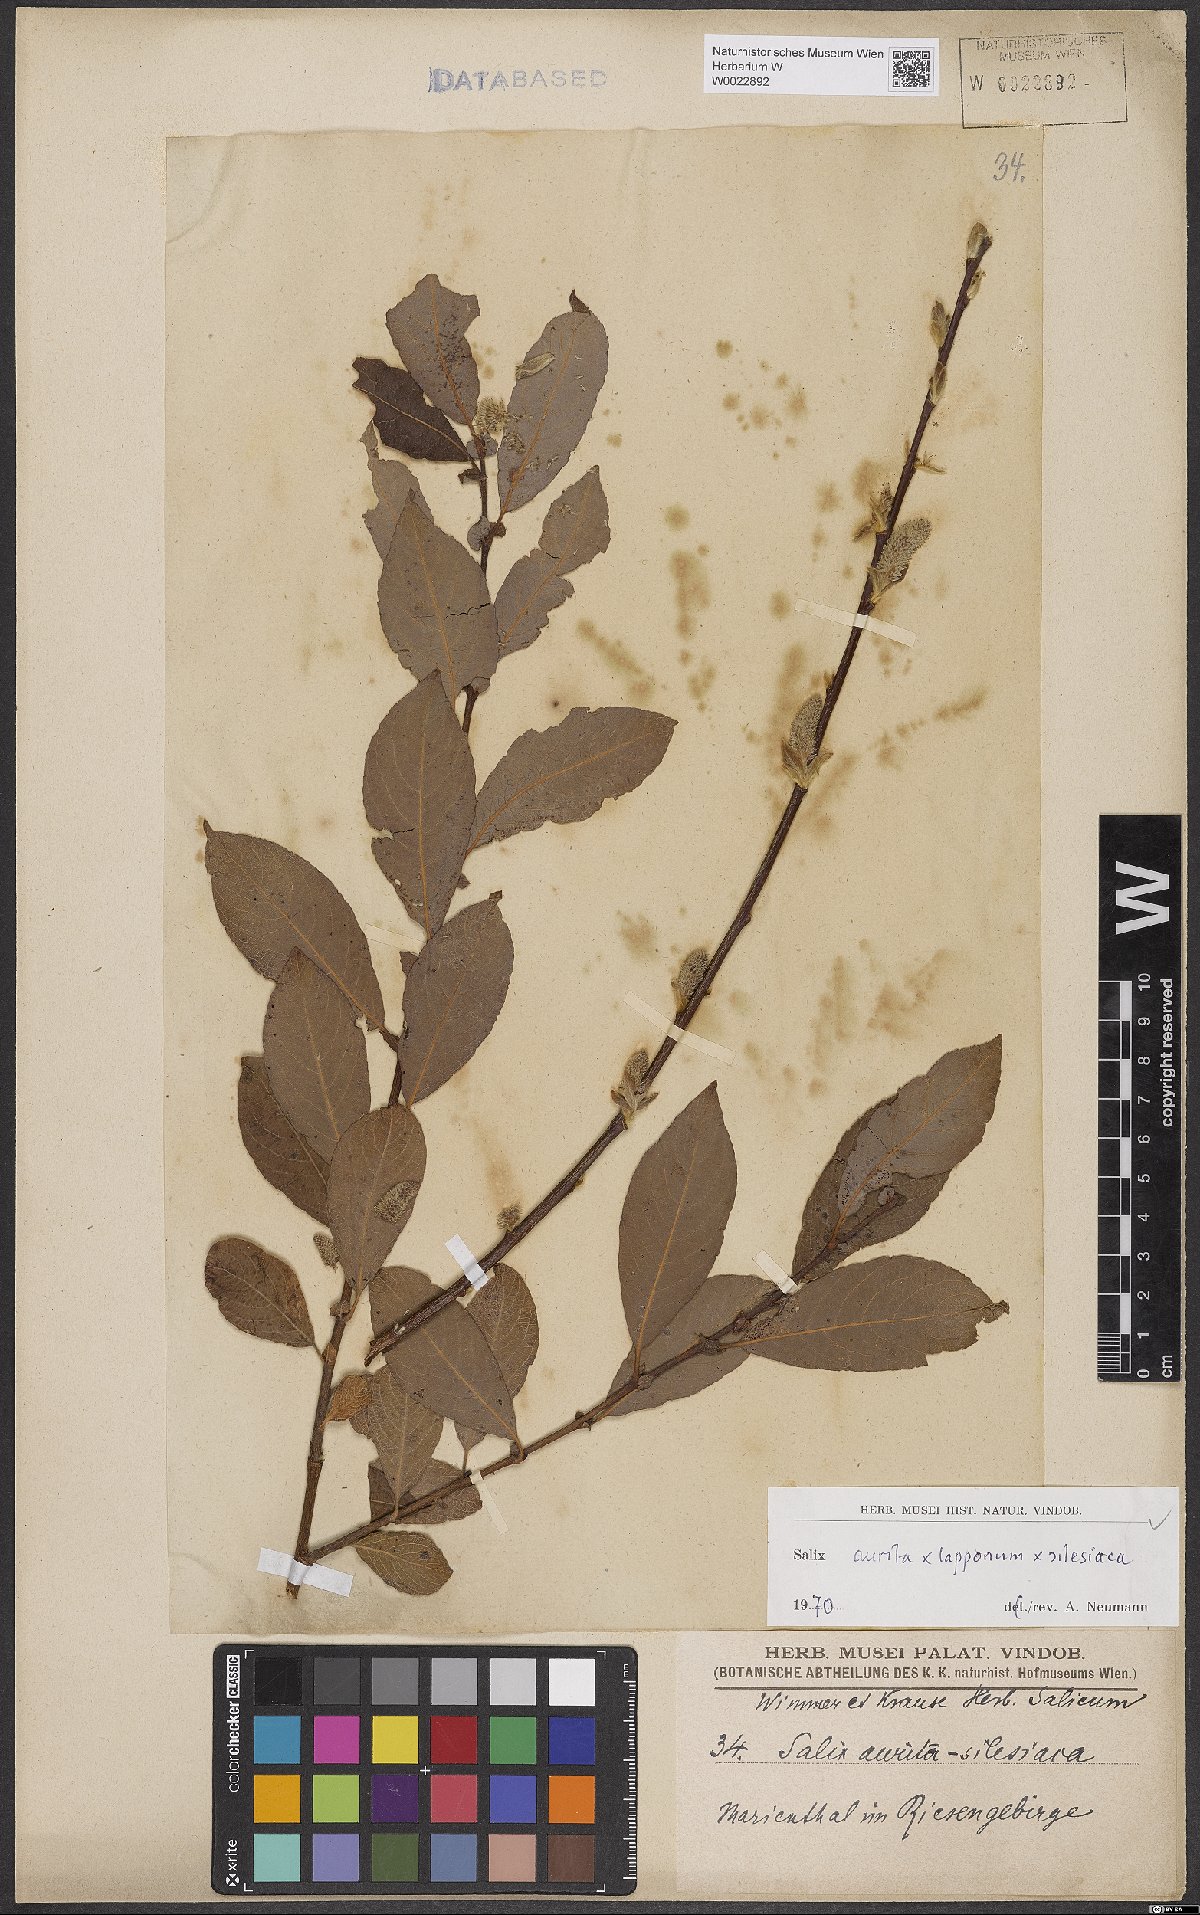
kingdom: Plantae
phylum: Tracheophyta
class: Magnoliopsida
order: Malpighiales
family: Salicaceae
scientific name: Salicaceae
